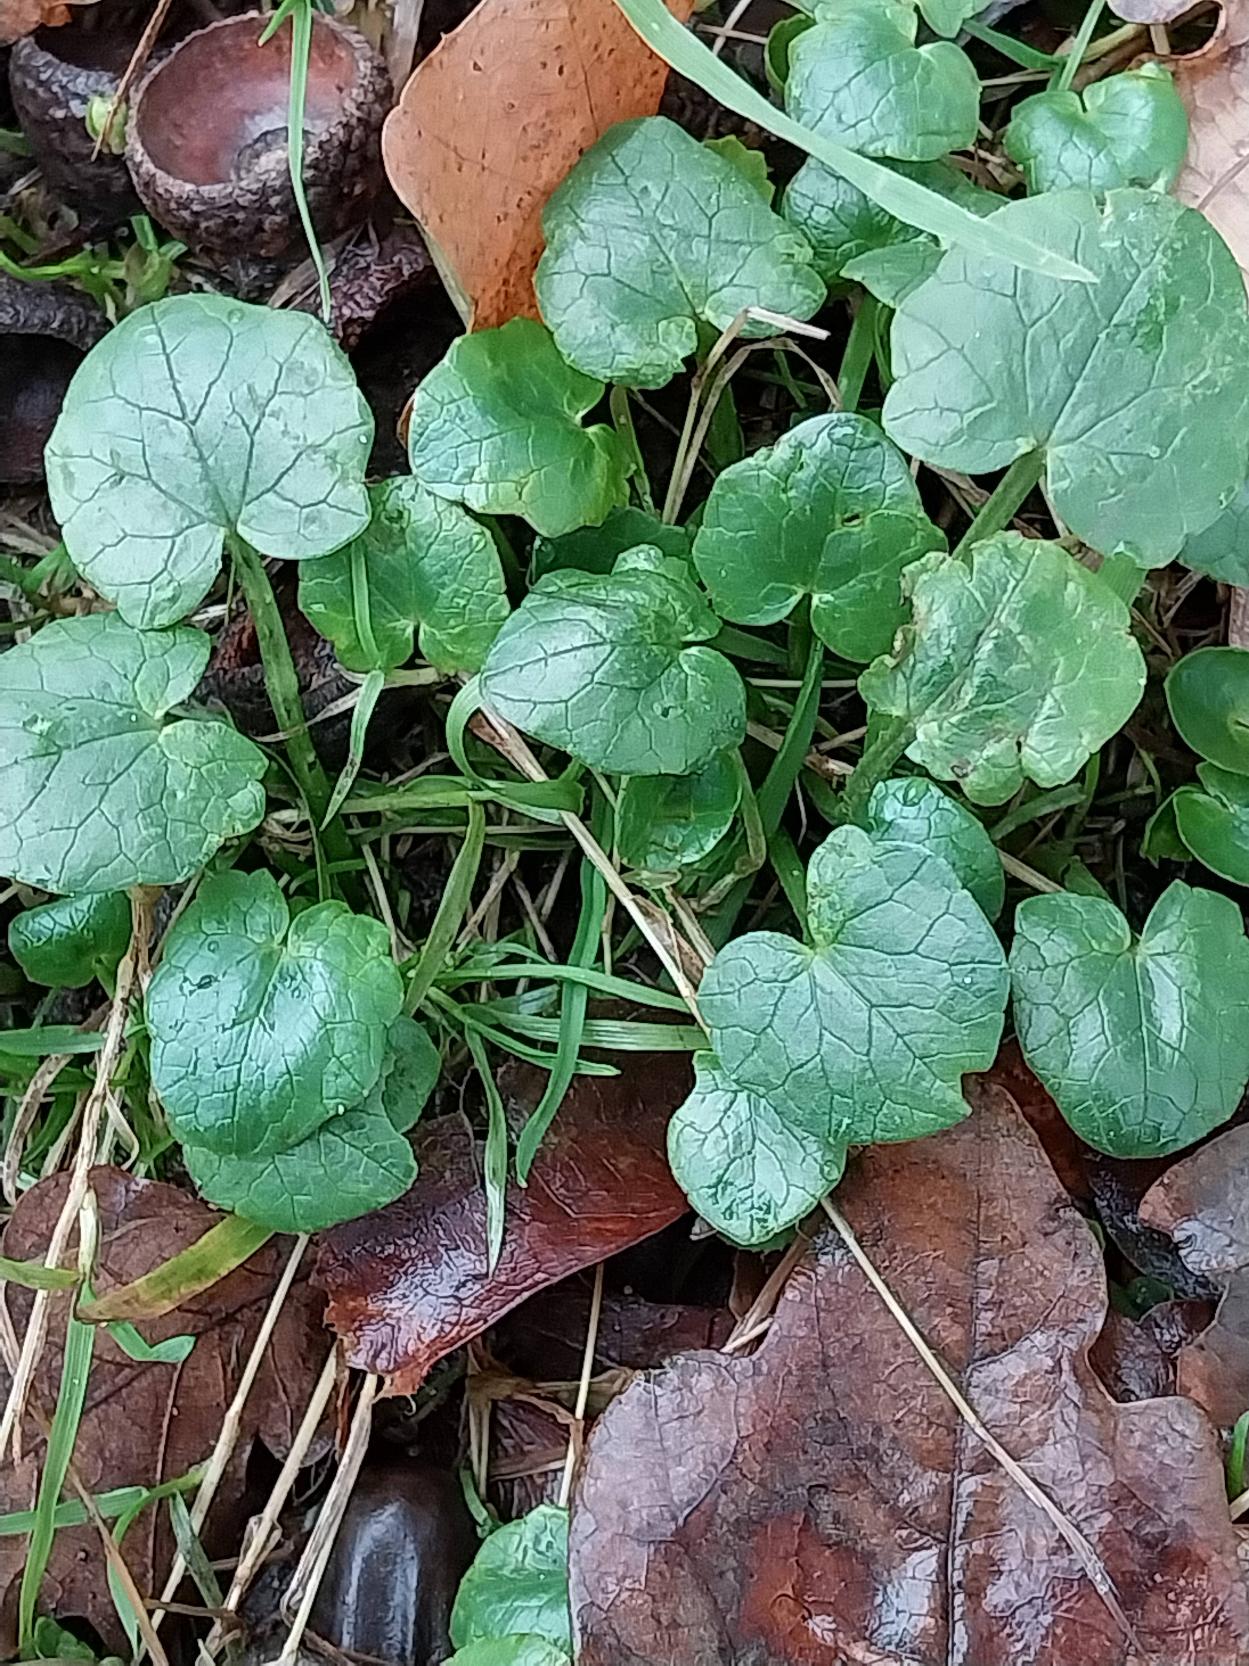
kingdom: Plantae
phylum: Tracheophyta
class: Magnoliopsida
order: Ranunculales
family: Ranunculaceae
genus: Ficaria
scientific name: Ficaria verna
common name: Vorterod
